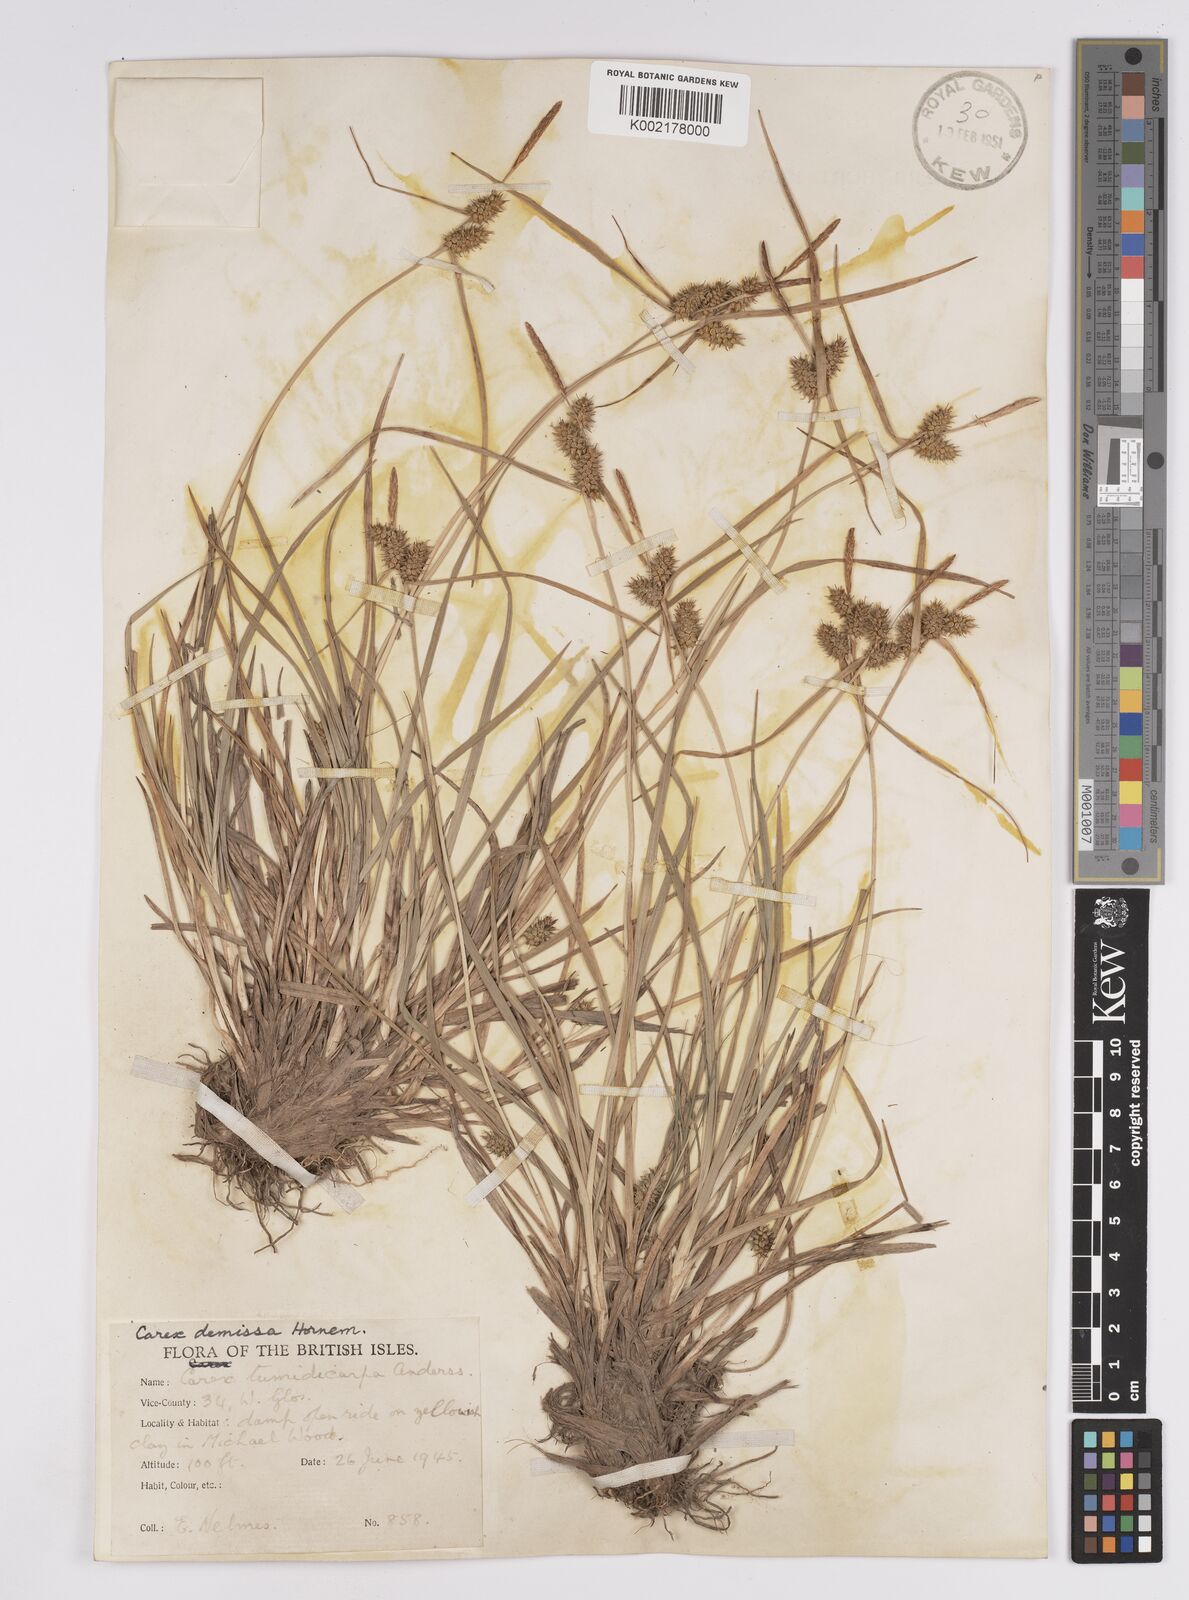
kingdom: Plantae
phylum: Tracheophyta
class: Liliopsida
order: Poales
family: Cyperaceae
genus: Carex
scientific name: Carex demissa
